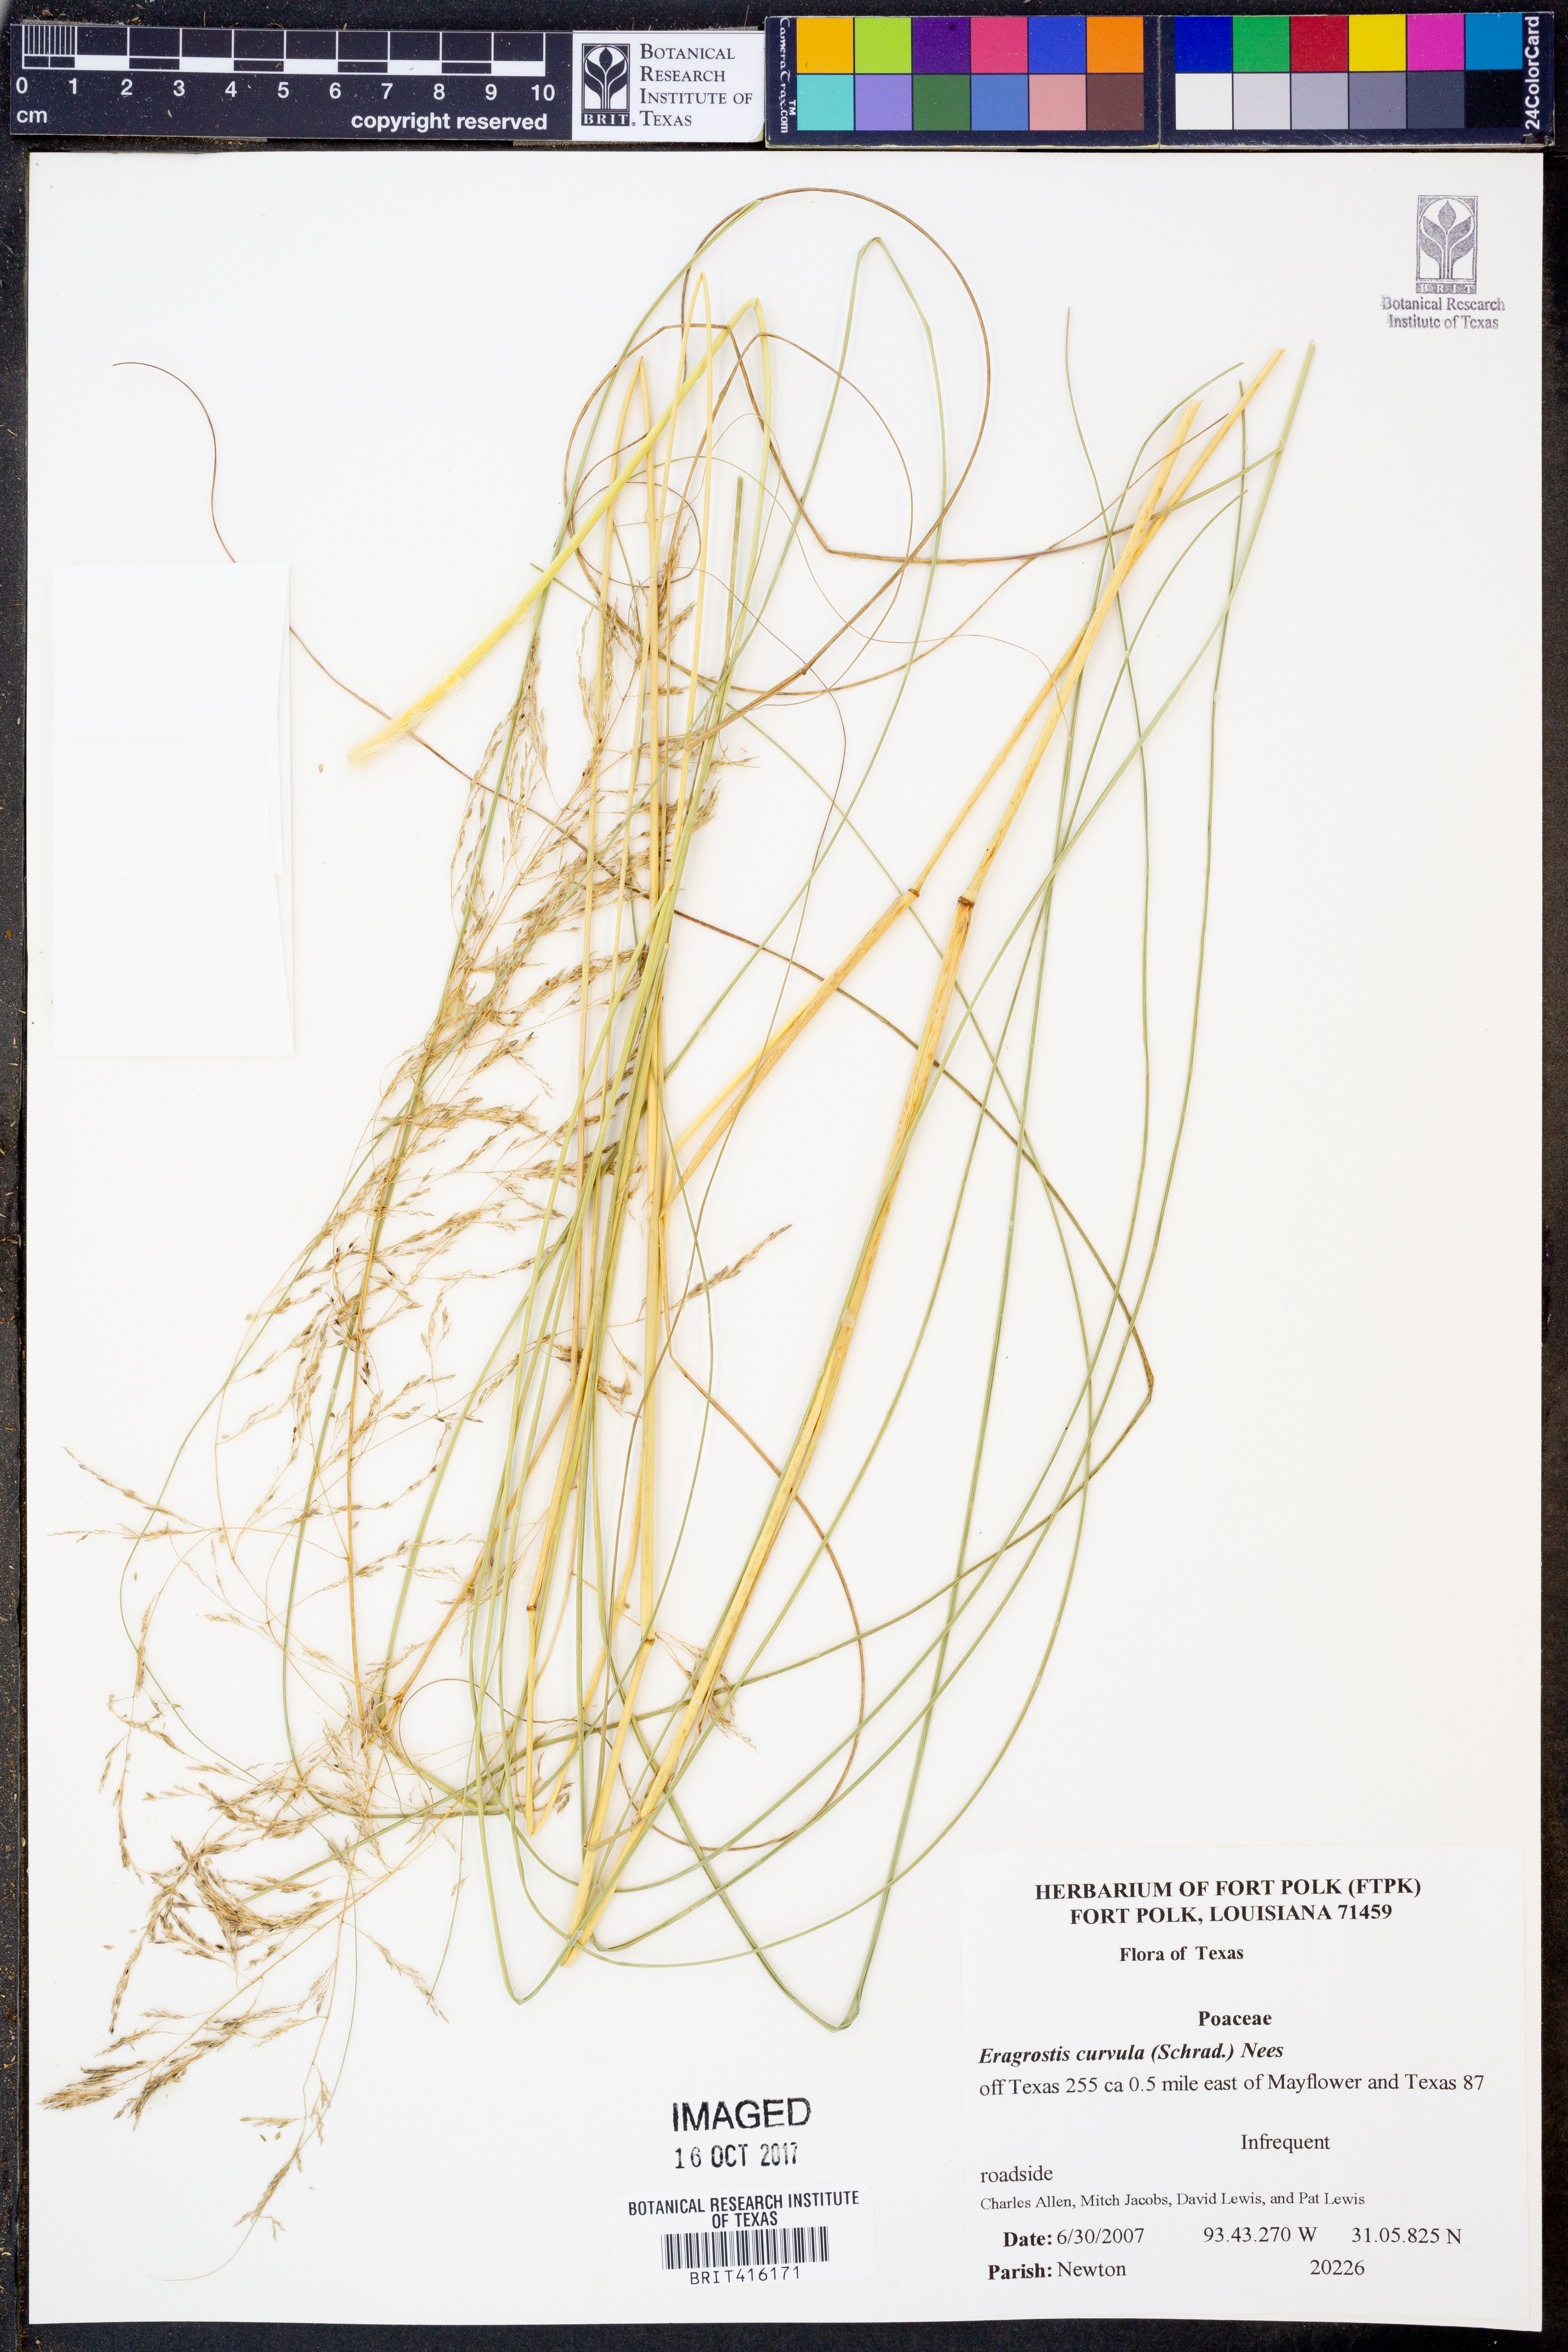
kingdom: Plantae
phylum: Tracheophyta
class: Liliopsida
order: Poales
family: Poaceae
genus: Eragrostis
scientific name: Eragrostis curvula
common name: African love-grass
